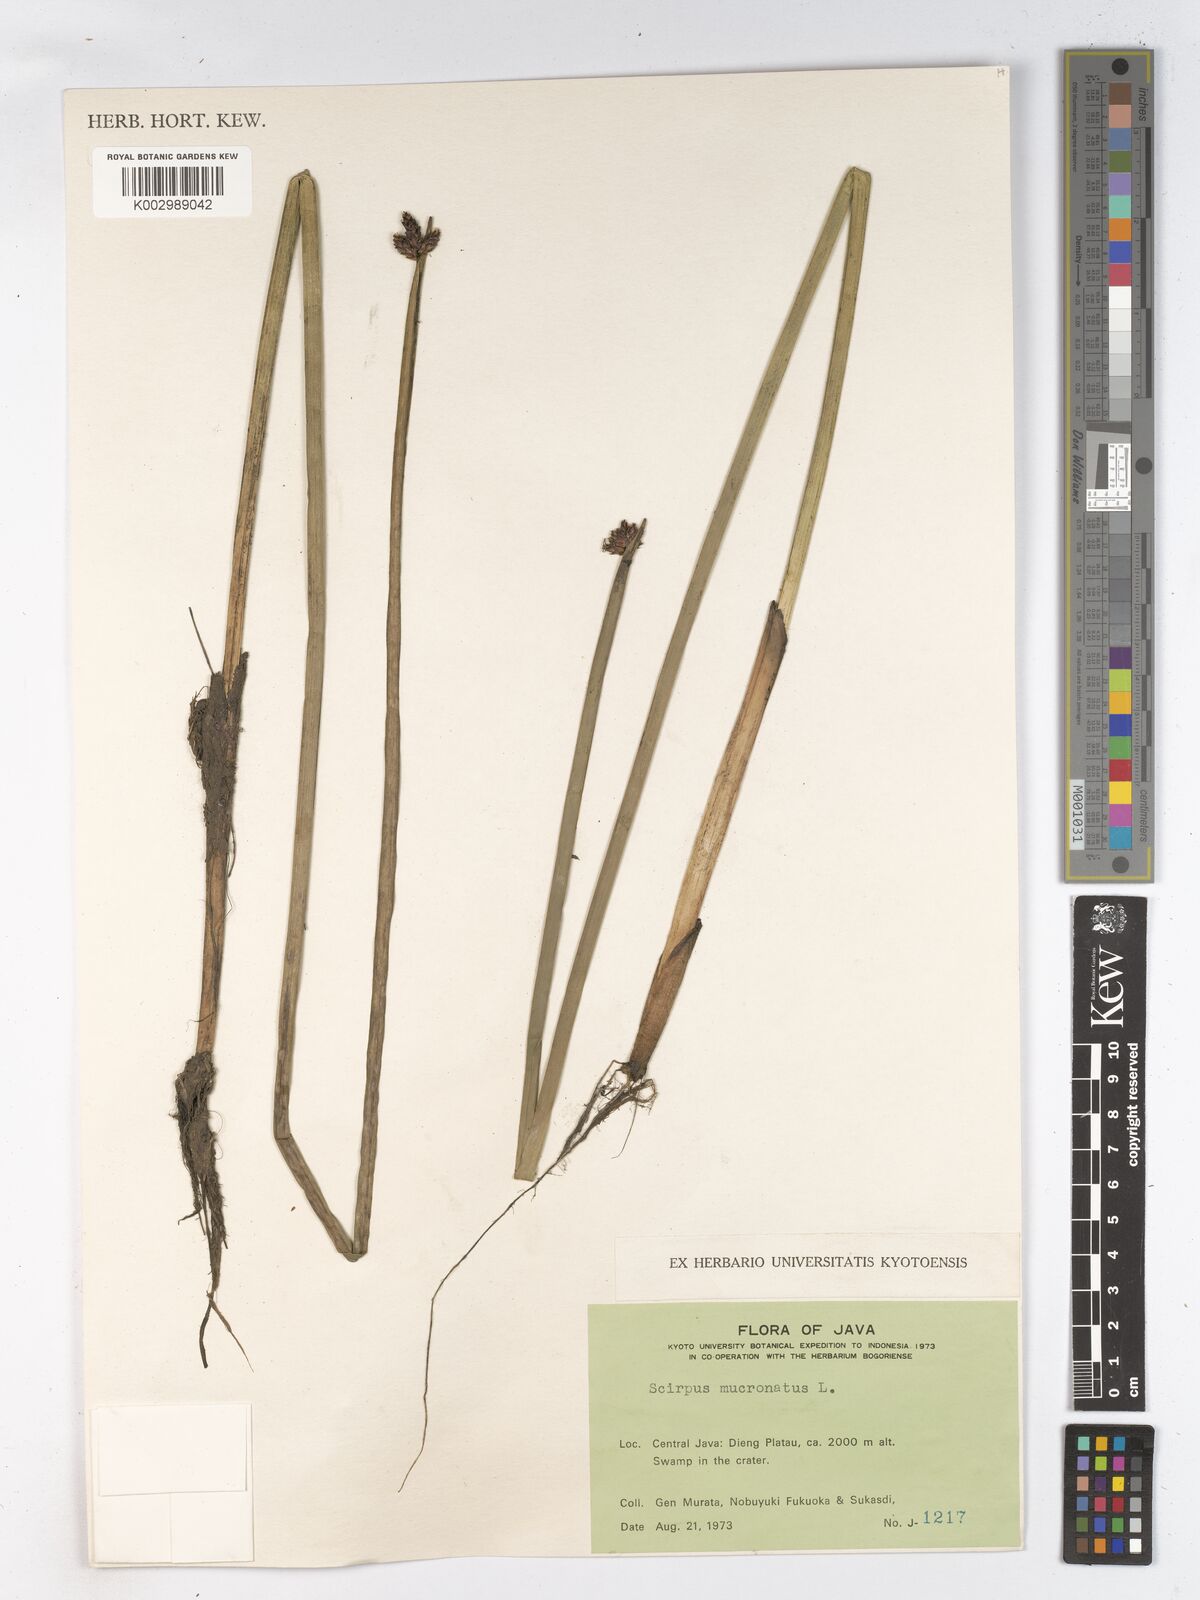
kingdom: Plantae
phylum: Tracheophyta
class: Liliopsida
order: Poales
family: Cyperaceae
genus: Schoenoplectiella
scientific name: Schoenoplectiella mucronata
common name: Bog bulrush
